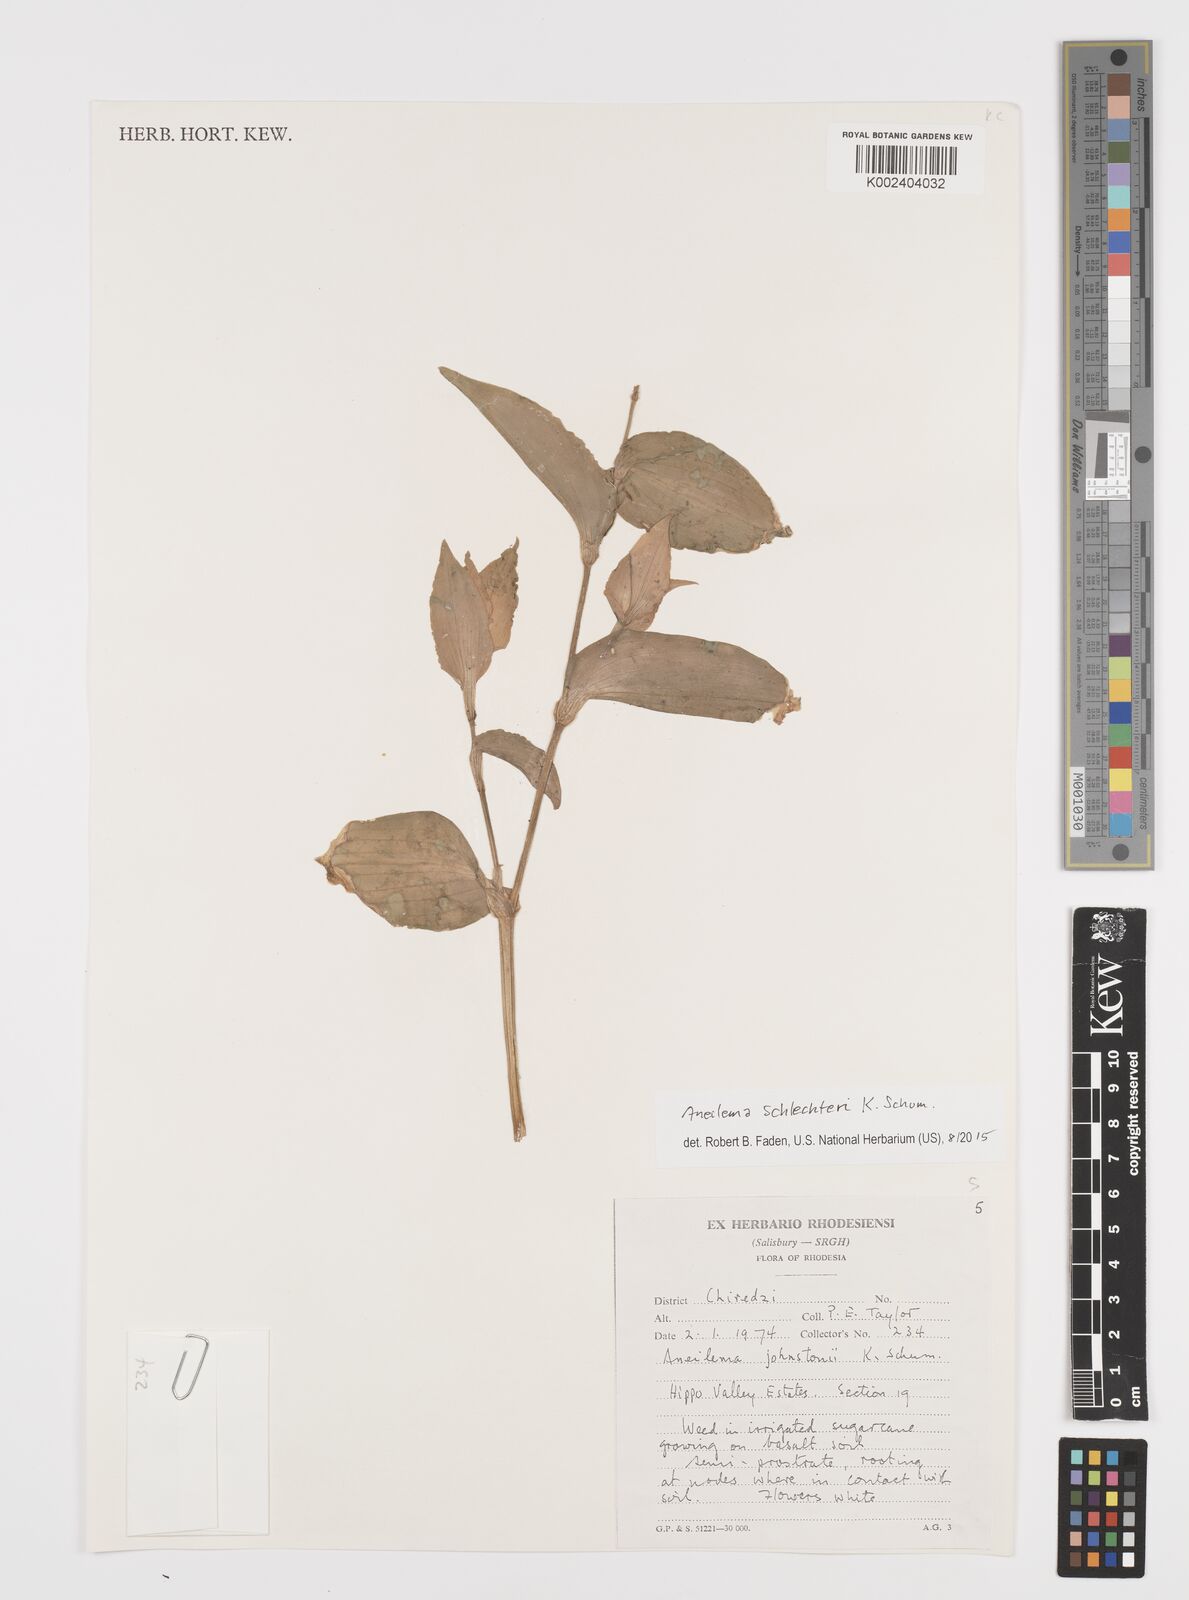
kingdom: Plantae
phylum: Tracheophyta
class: Liliopsida
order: Commelinales
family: Commelinaceae
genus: Aneilema
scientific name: Aneilema schlechteri
